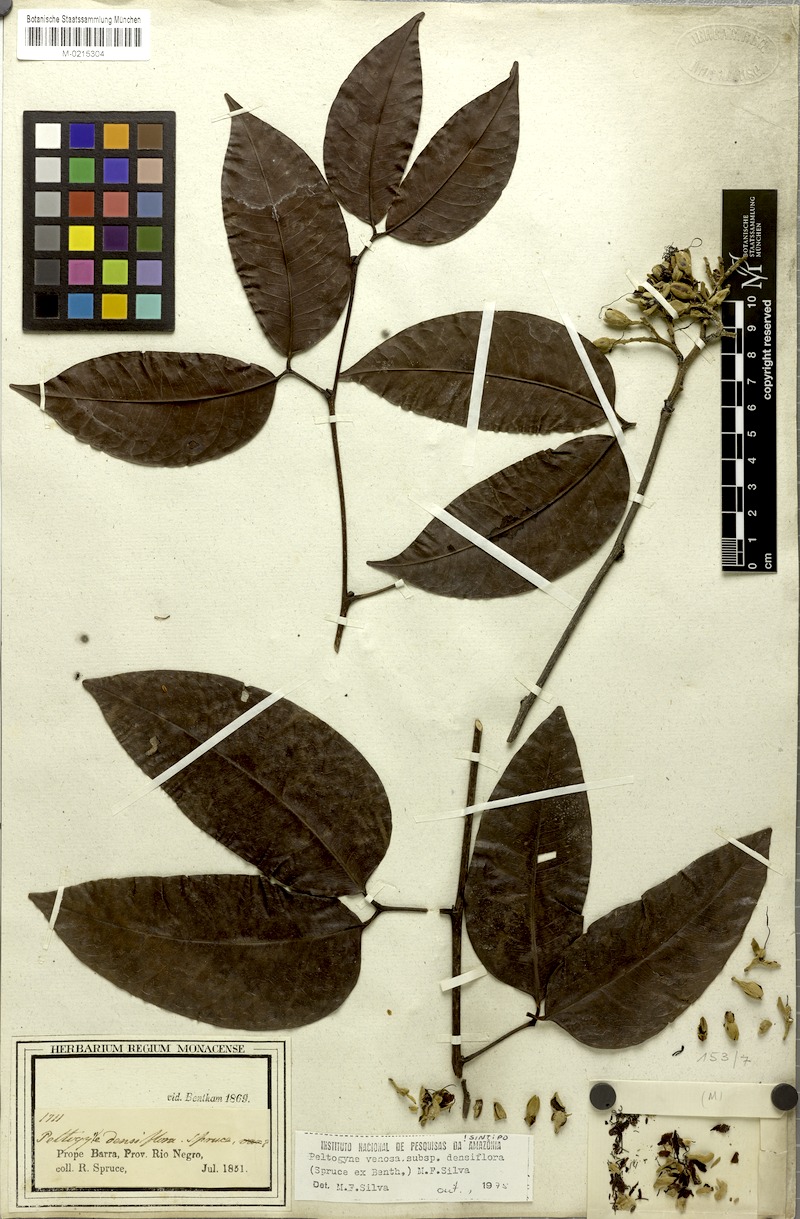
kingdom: Plantae
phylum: Tracheophyta
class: Magnoliopsida
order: Fabales
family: Fabaceae
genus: Peltogyne
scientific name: Peltogyne venosa
